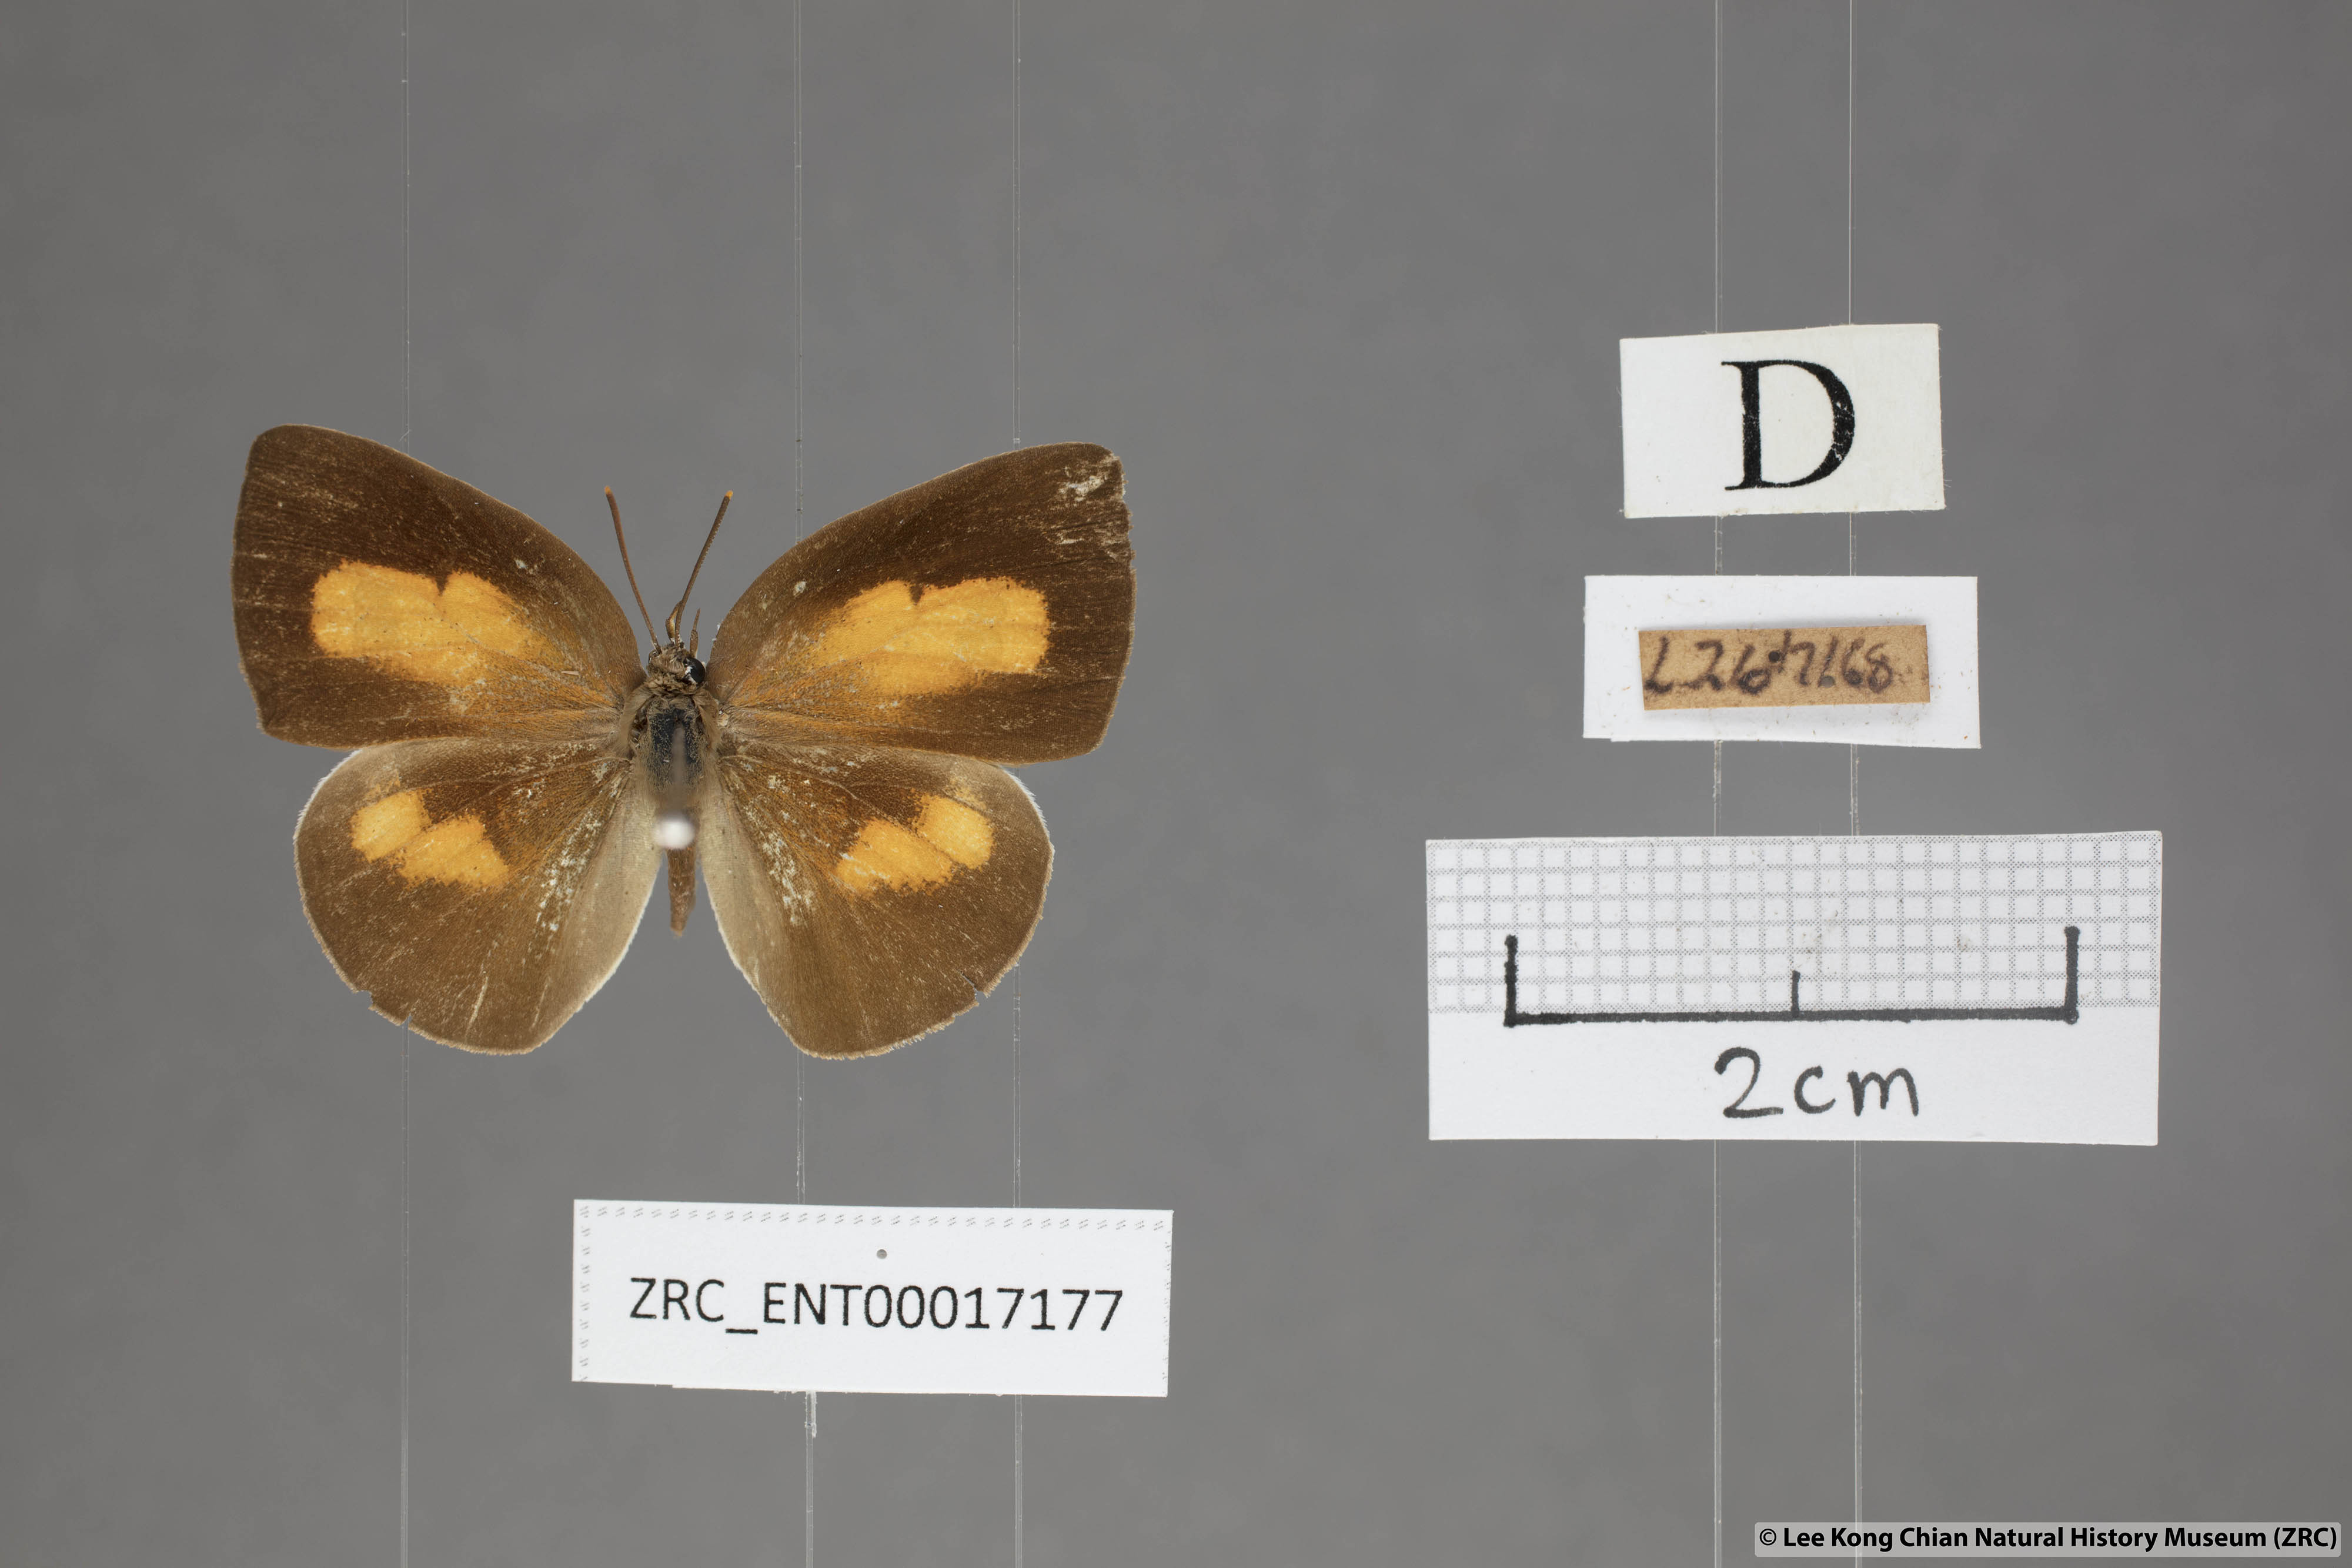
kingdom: Animalia
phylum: Arthropoda
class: Insecta
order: Lepidoptera
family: Lycaenidae
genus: Curetis
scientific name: Curetis tagalica
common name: Southern sunbeam
